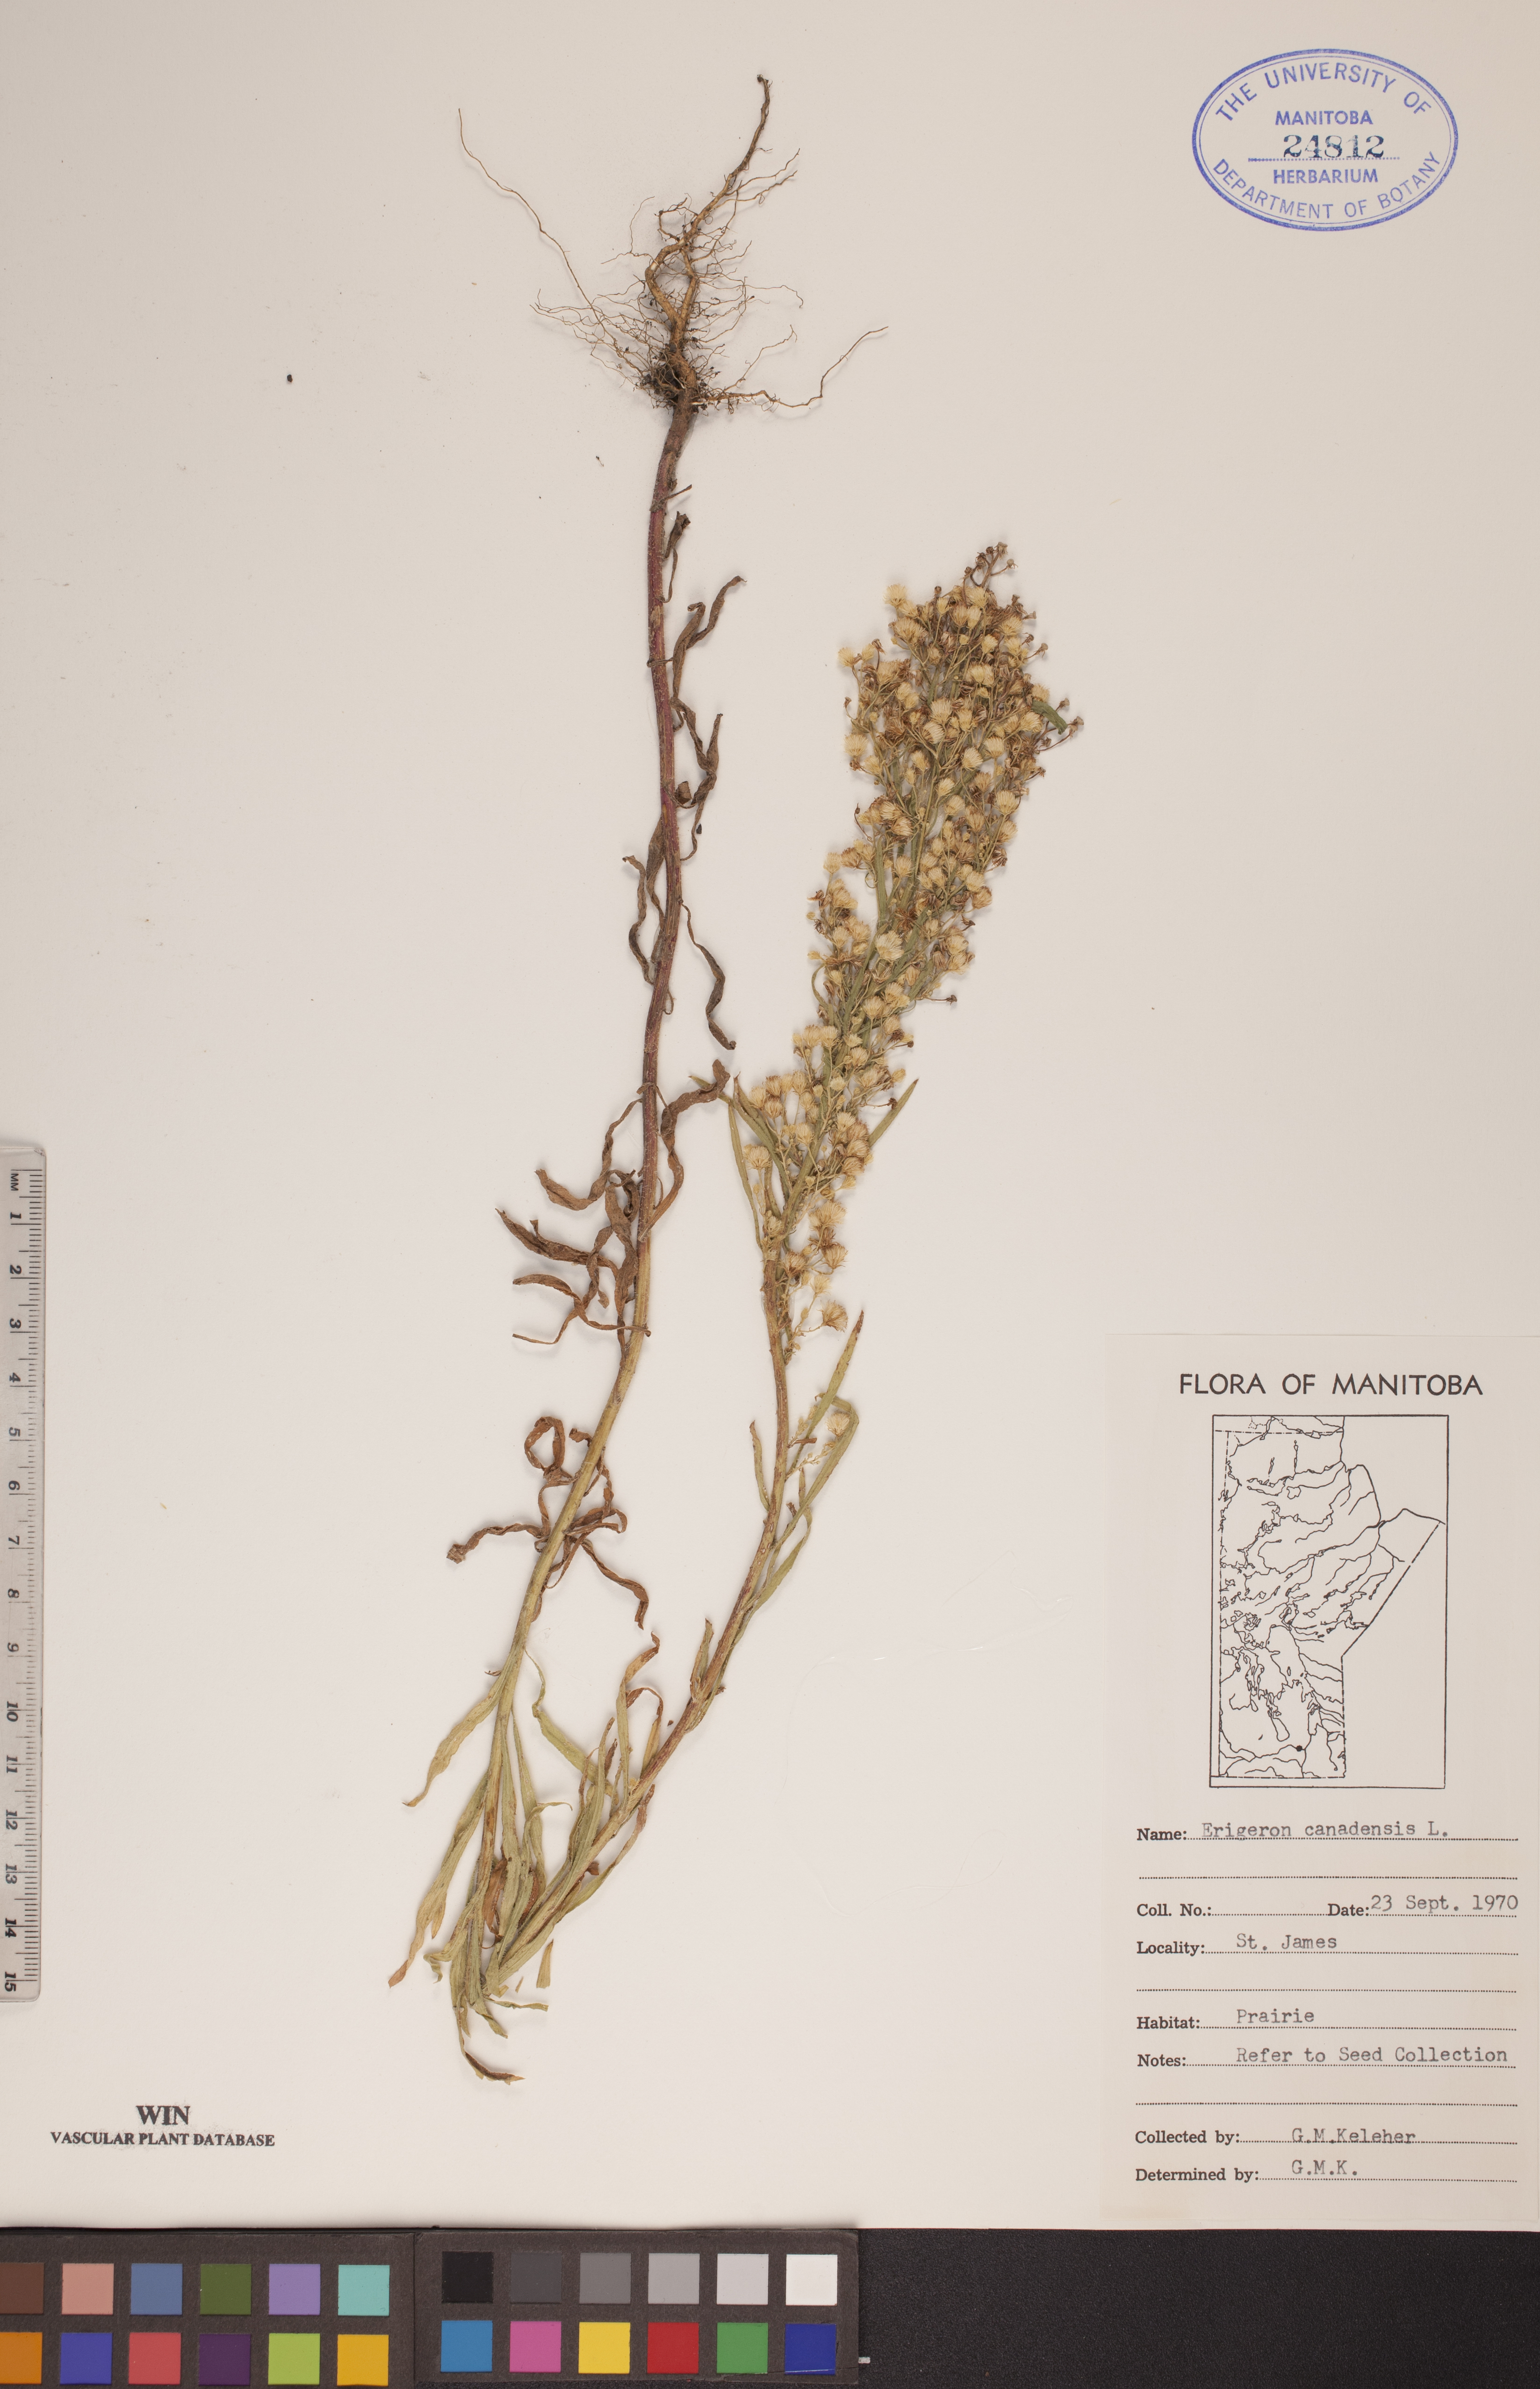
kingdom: Plantae
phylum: Tracheophyta
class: Magnoliopsida
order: Asterales
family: Asteraceae
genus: Erigeron
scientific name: Erigeron canadensis
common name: Canadian fleabane
